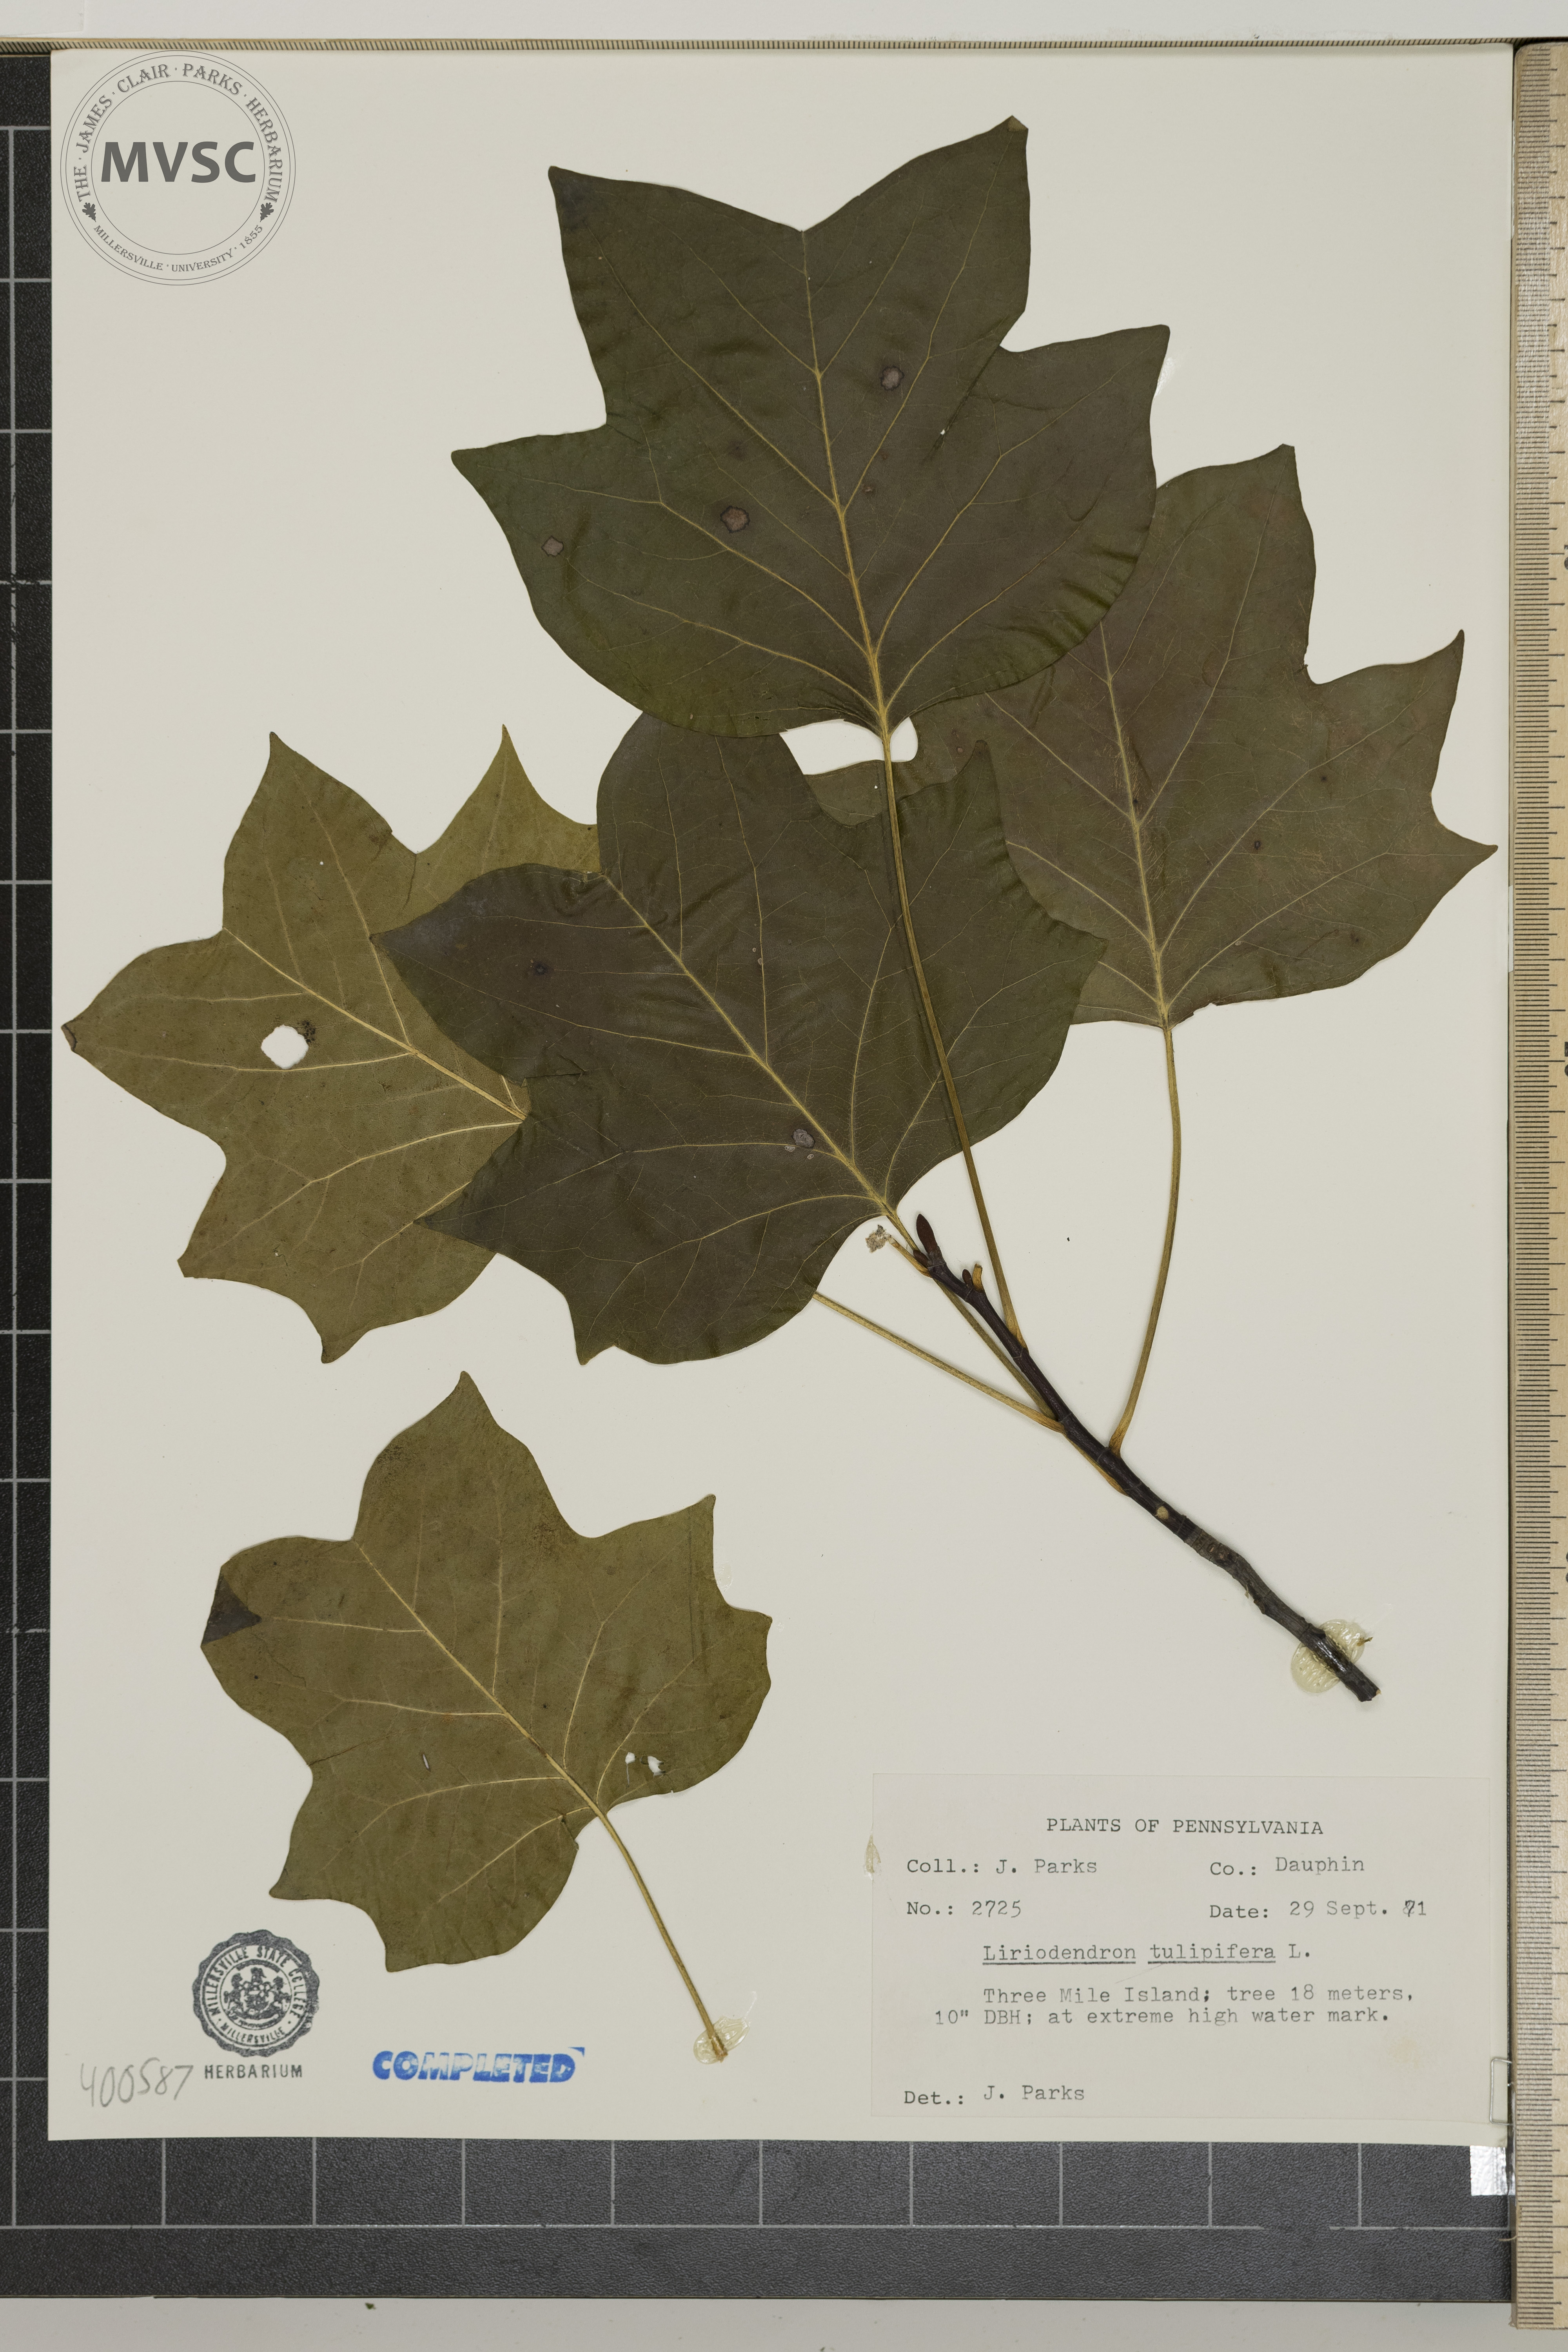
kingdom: Plantae
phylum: Tracheophyta
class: Magnoliopsida
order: Magnoliales
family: Magnoliaceae
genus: Liriodendron
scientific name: Liriodendron tulipifera
